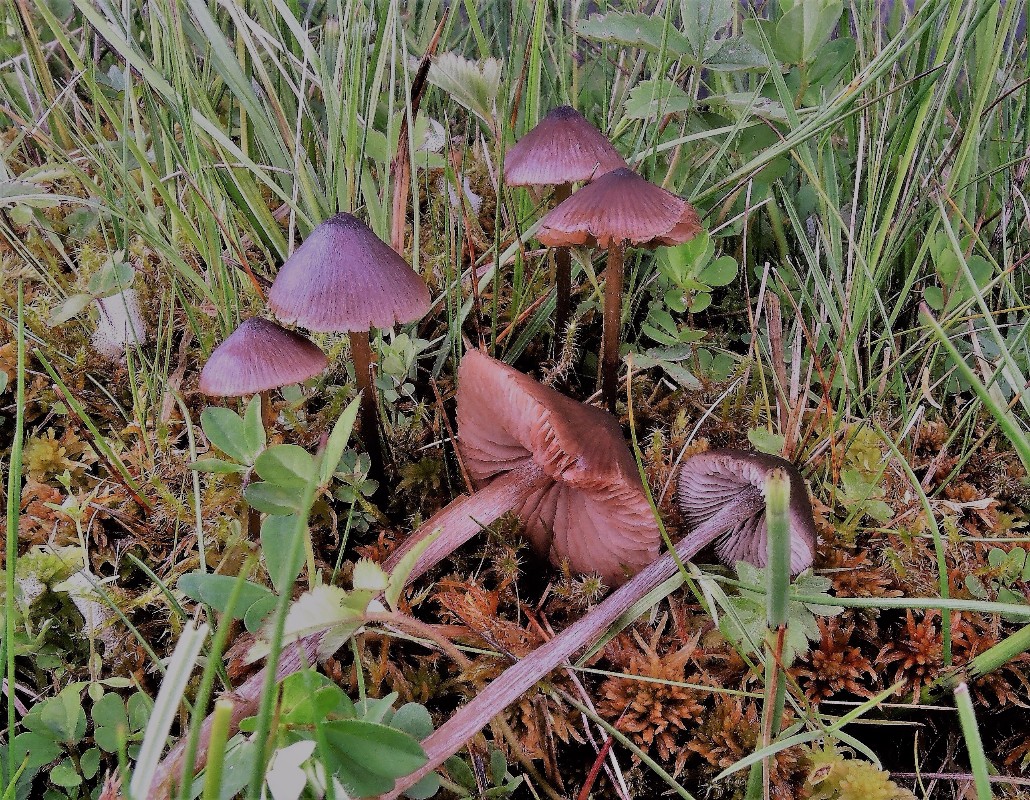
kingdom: Fungi
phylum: Basidiomycota
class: Agaricomycetes
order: Agaricales
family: Entolomataceae
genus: Entoloma
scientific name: Entoloma
